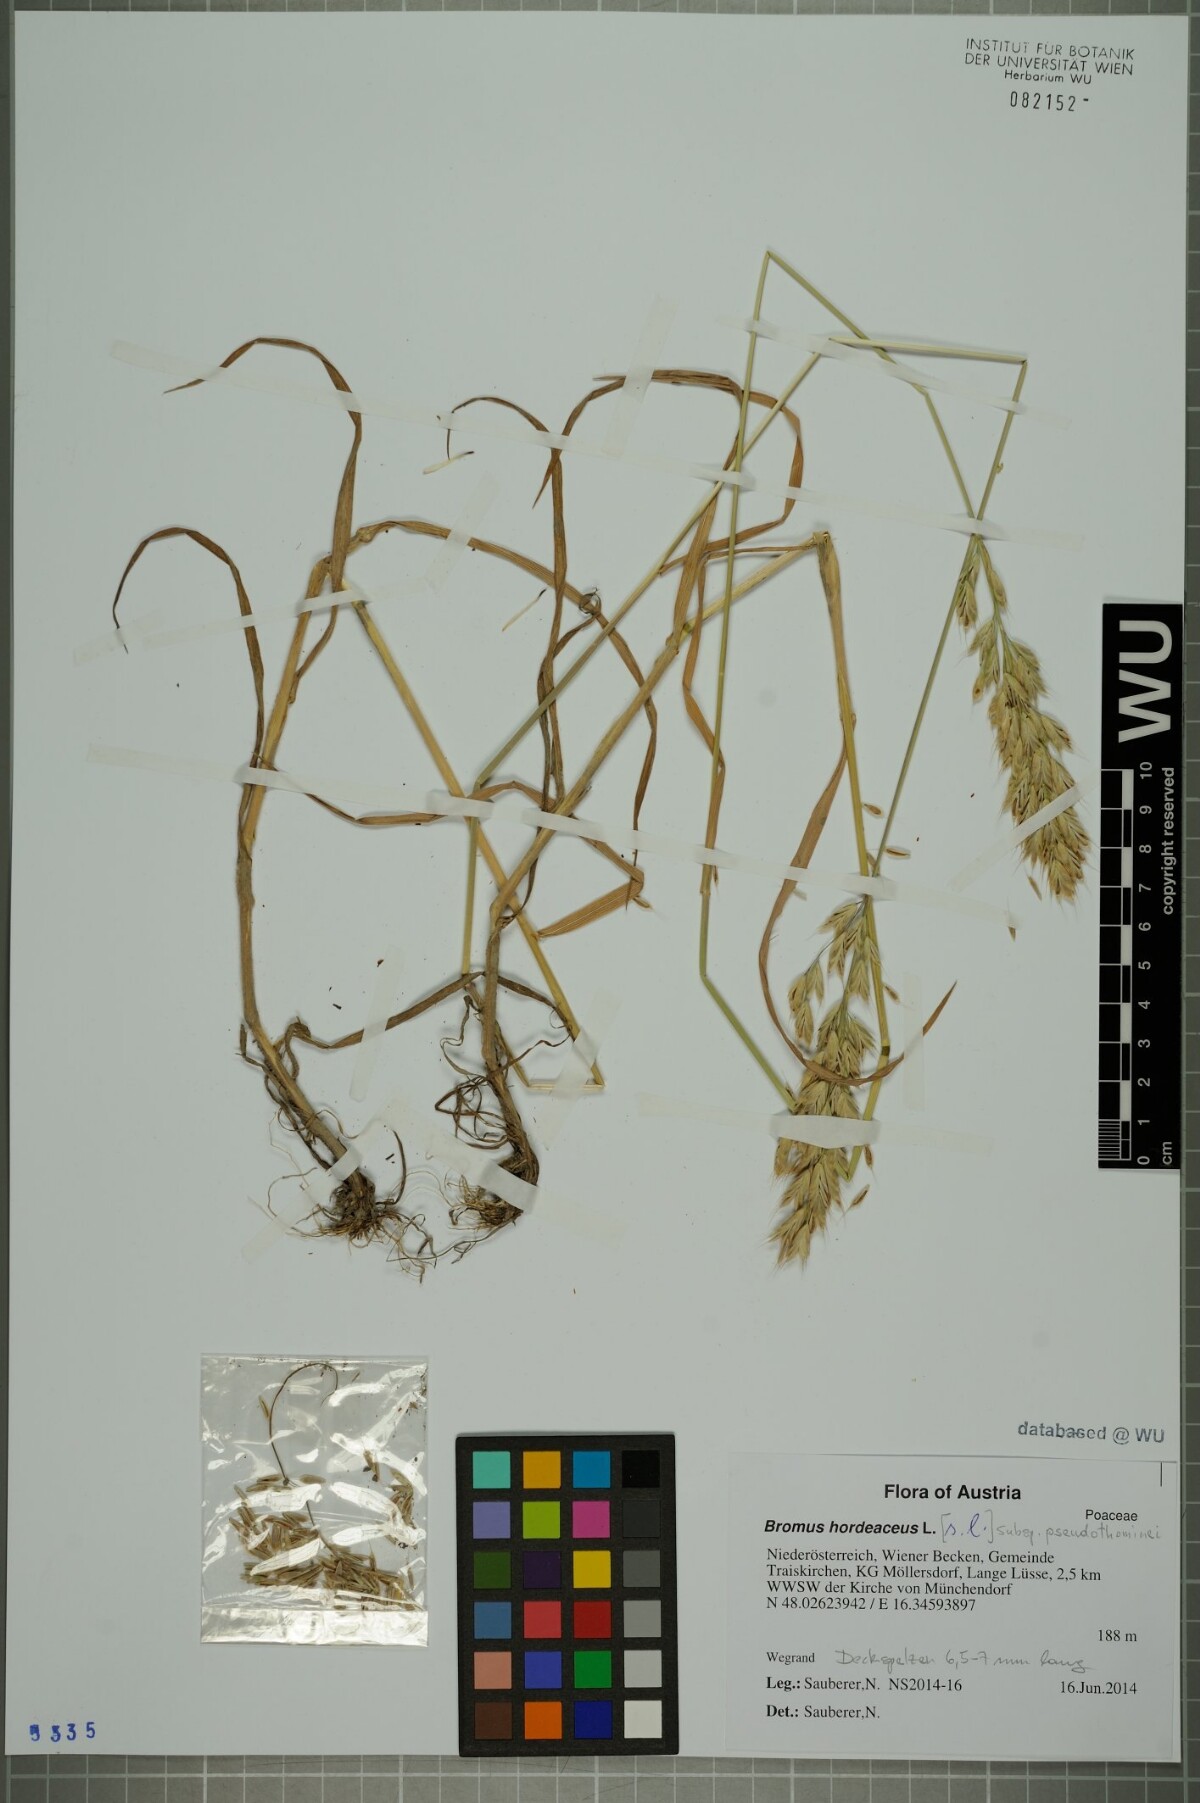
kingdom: Plantae
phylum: Tracheophyta
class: Liliopsida
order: Poales
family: Poaceae
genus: Bromus
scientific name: Bromus ferronii
